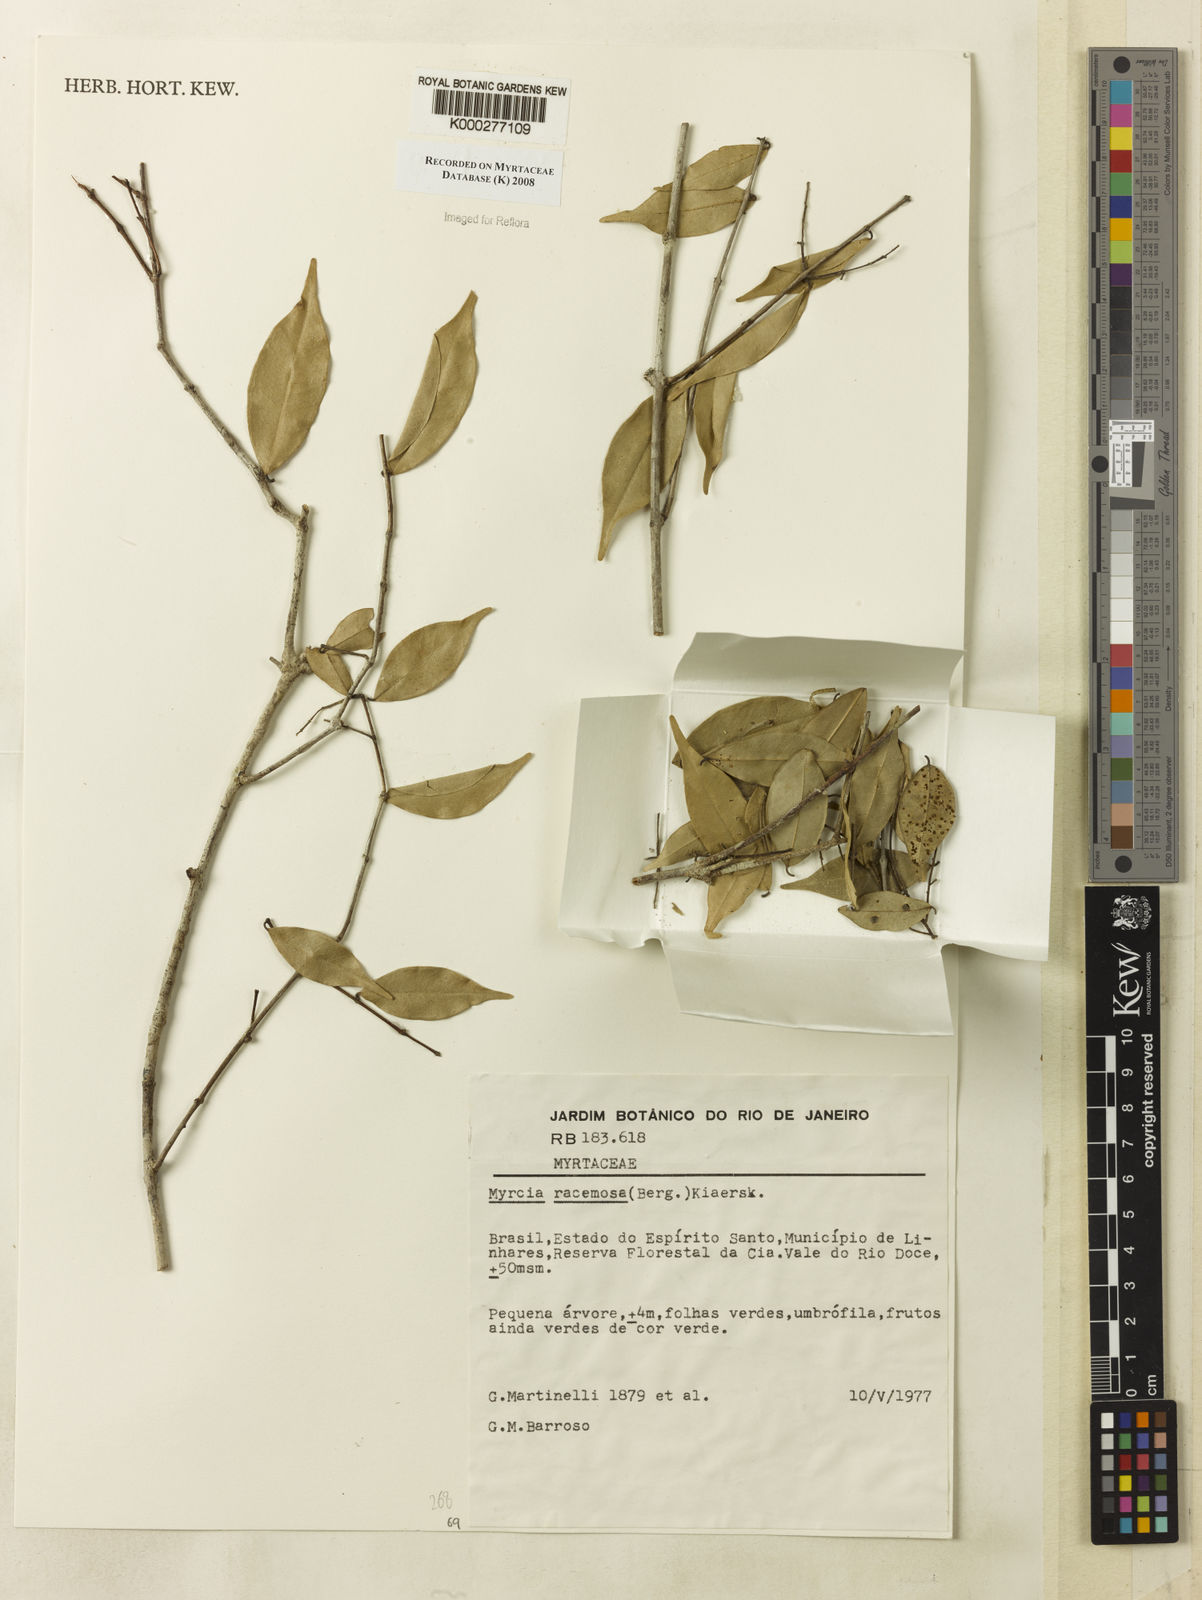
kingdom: Plantae
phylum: Tracheophyta
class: Magnoliopsida
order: Myrtales
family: Myrtaceae
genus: Myrcia
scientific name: Myrcia racemosa
